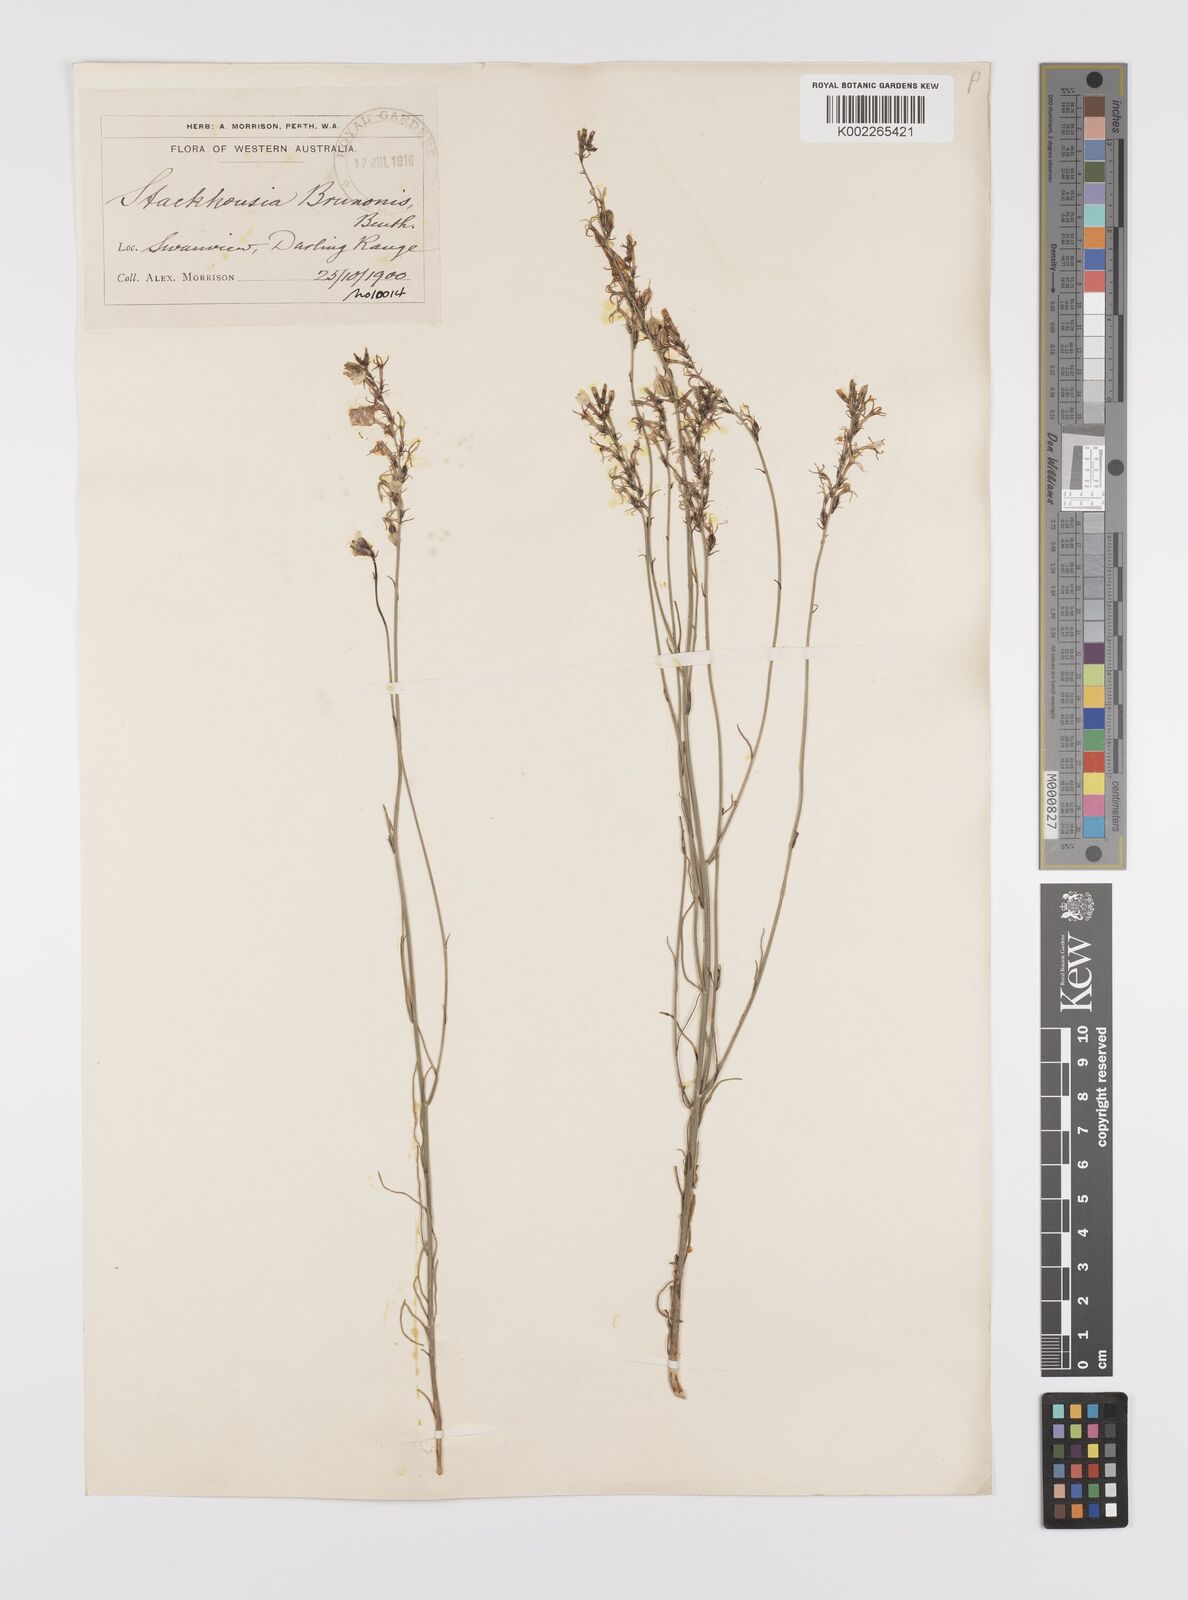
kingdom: Plantae
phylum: Tracheophyta
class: Magnoliopsida
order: Celastrales
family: Celastraceae
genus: Tripterococcus
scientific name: Tripterococcus brunonis
